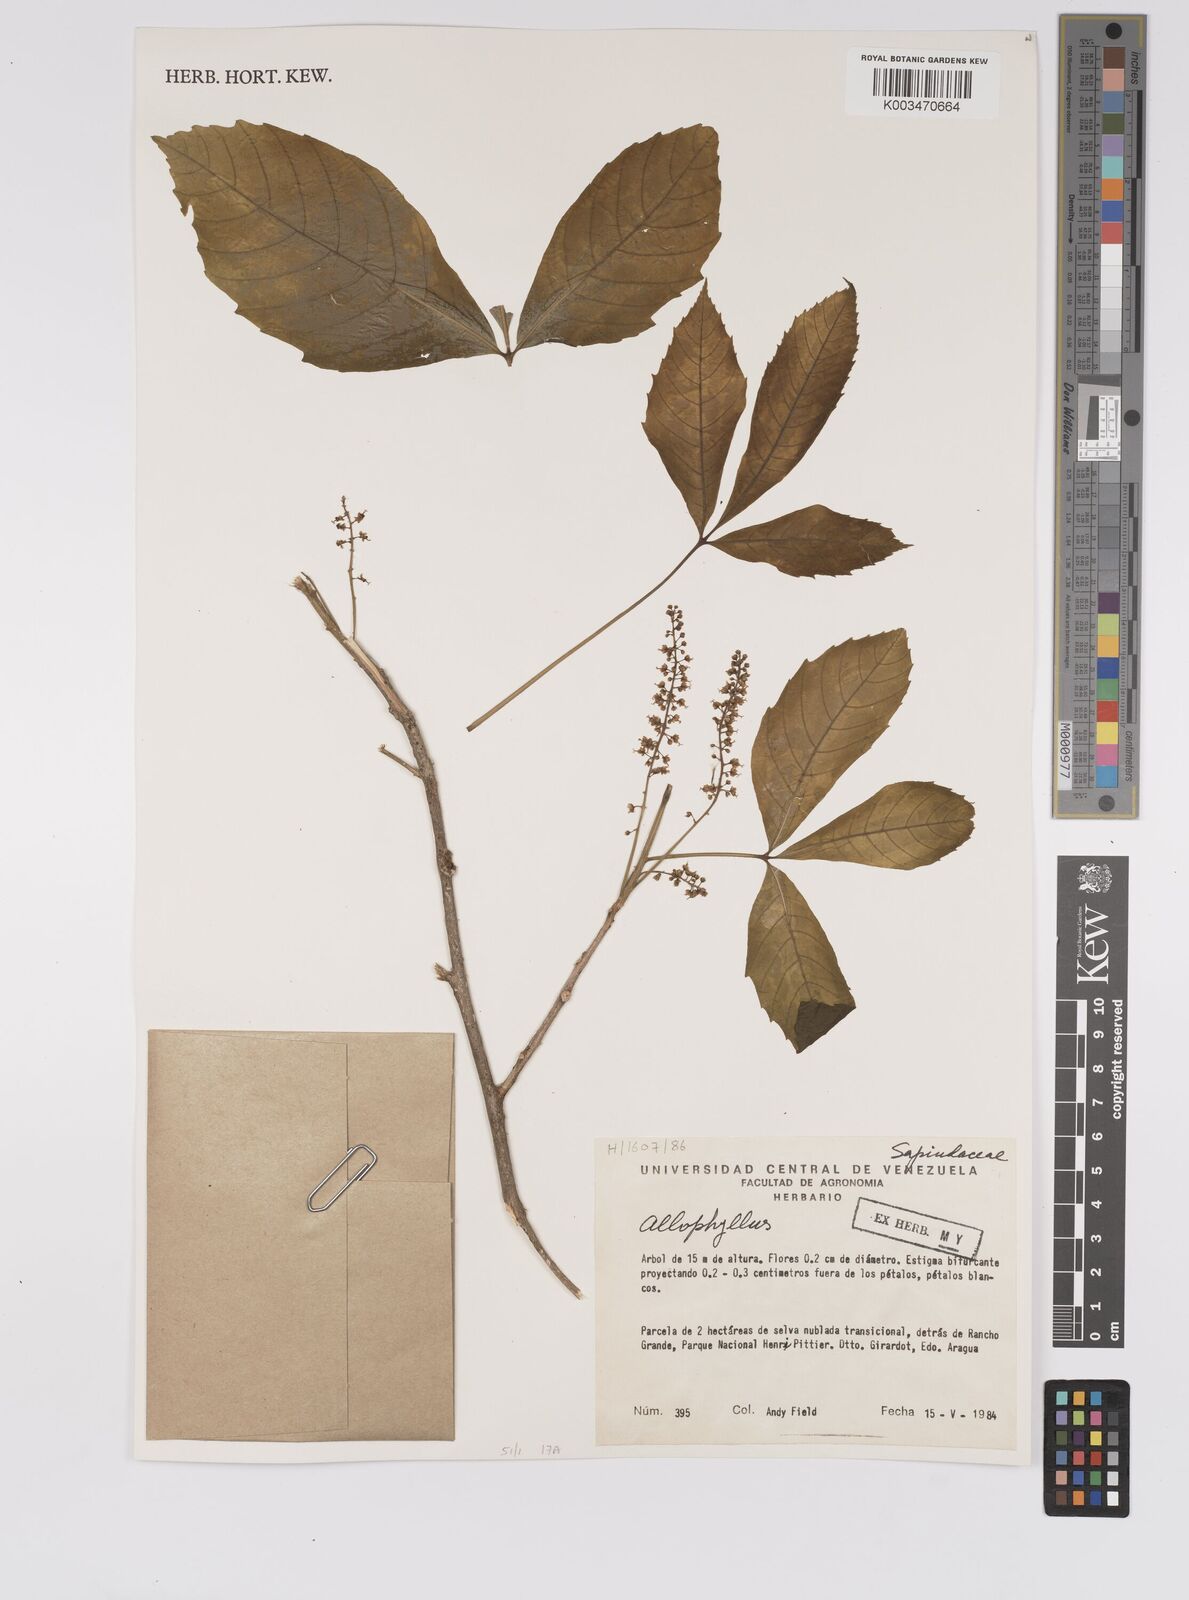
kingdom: Plantae
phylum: Tracheophyta
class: Magnoliopsida
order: Sapindales
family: Sapindaceae
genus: Allophylus
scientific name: Allophylus
